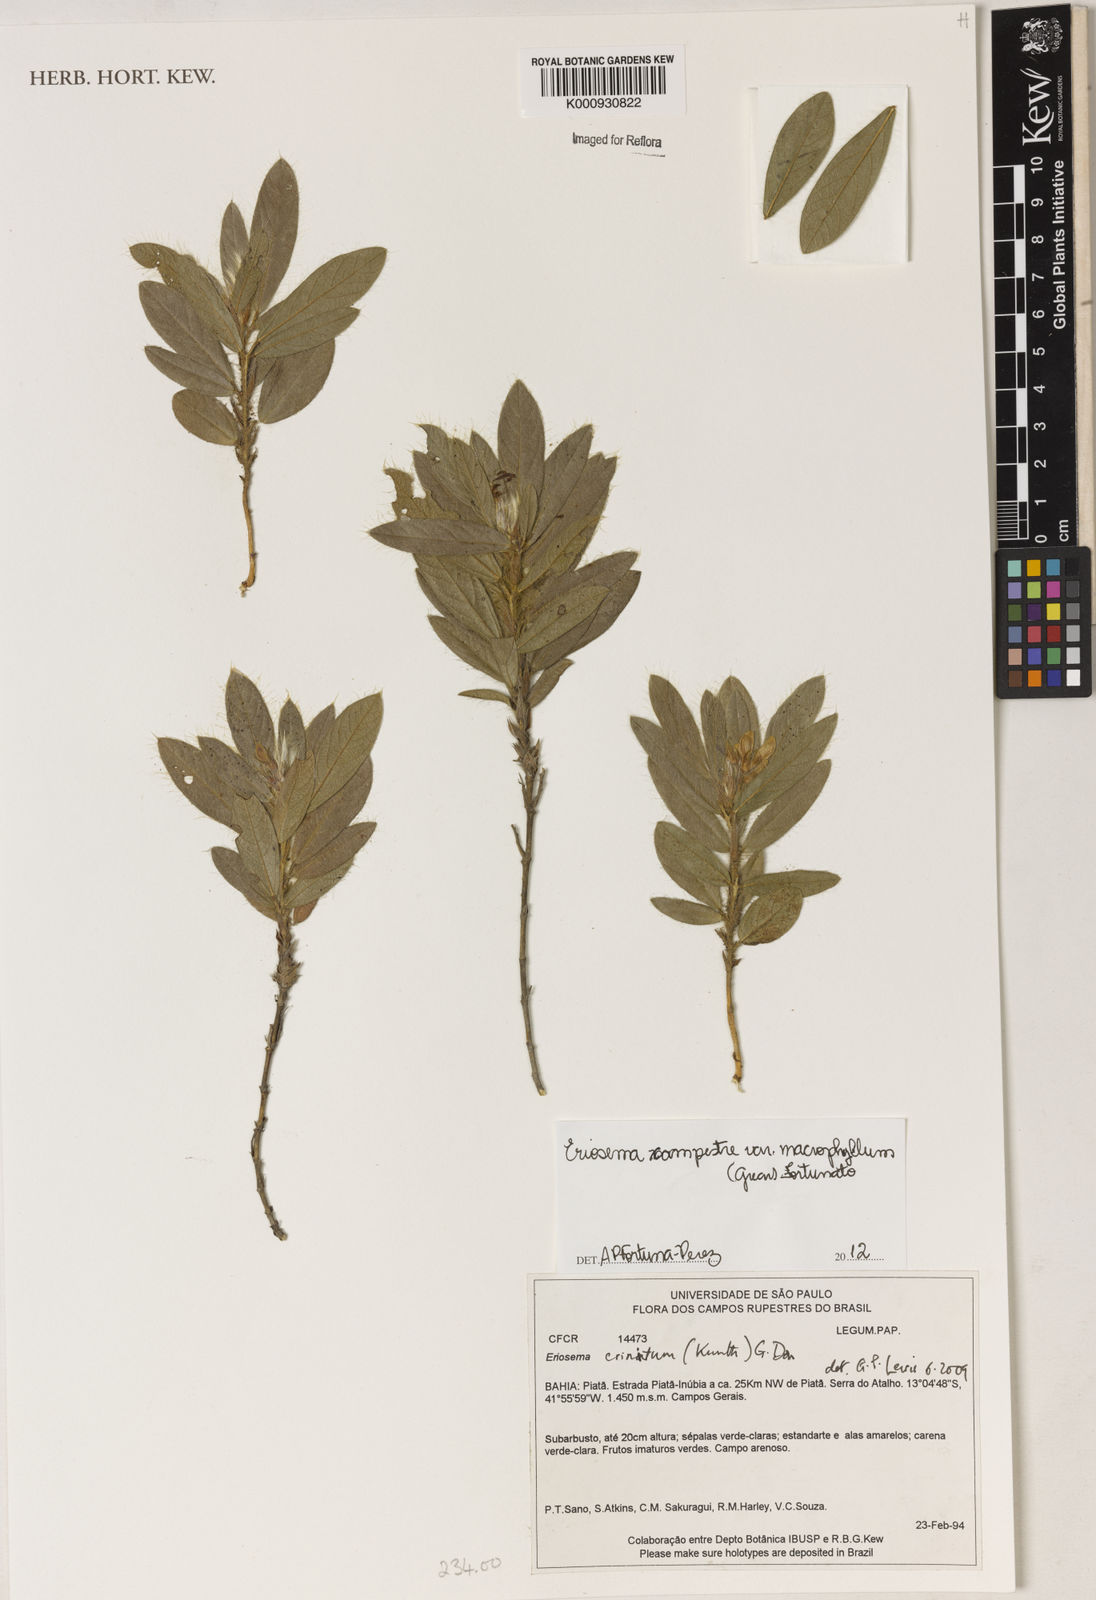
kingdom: Plantae
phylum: Tracheophyta
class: Magnoliopsida
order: Fabales
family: Fabaceae
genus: Eriosema
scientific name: Eriosema campestre
